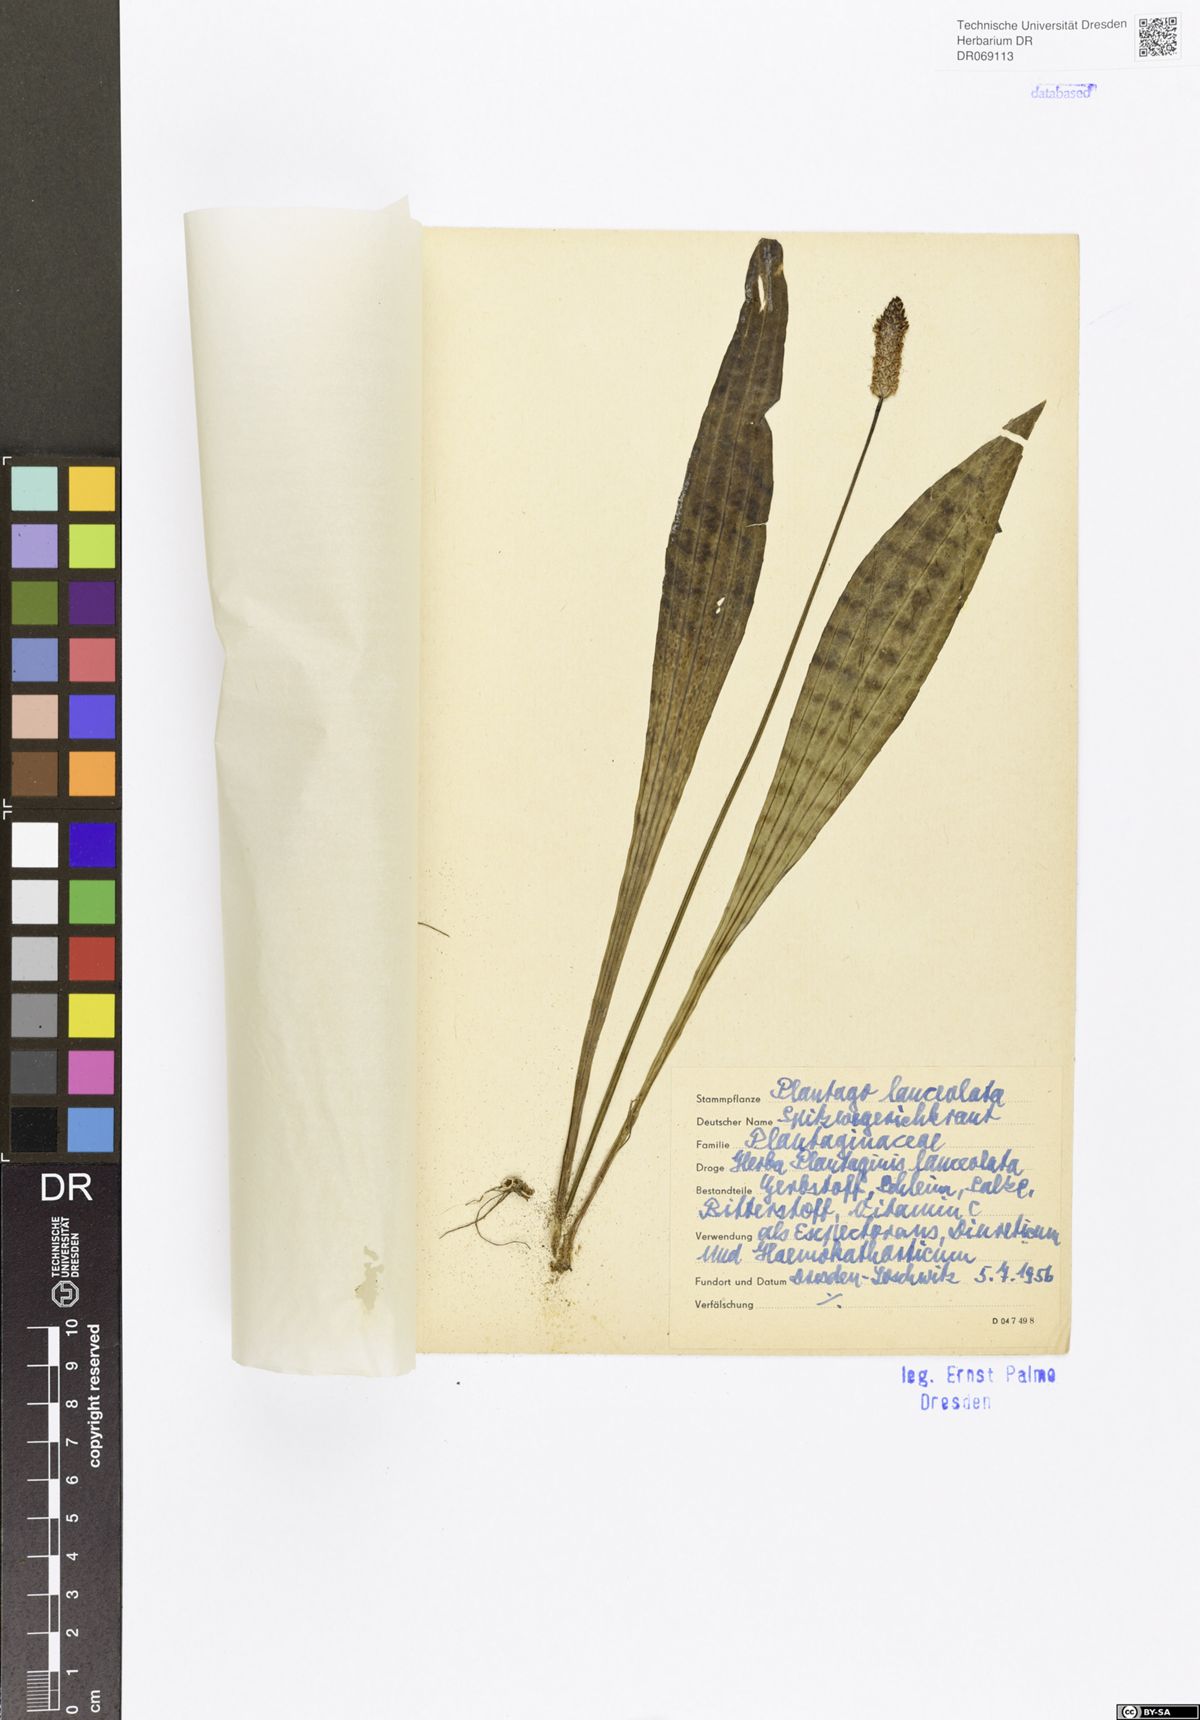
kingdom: Plantae
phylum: Tracheophyta
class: Magnoliopsida
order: Lamiales
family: Plantaginaceae
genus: Plantago
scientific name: Plantago lanceolata
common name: Ribwort plantain
